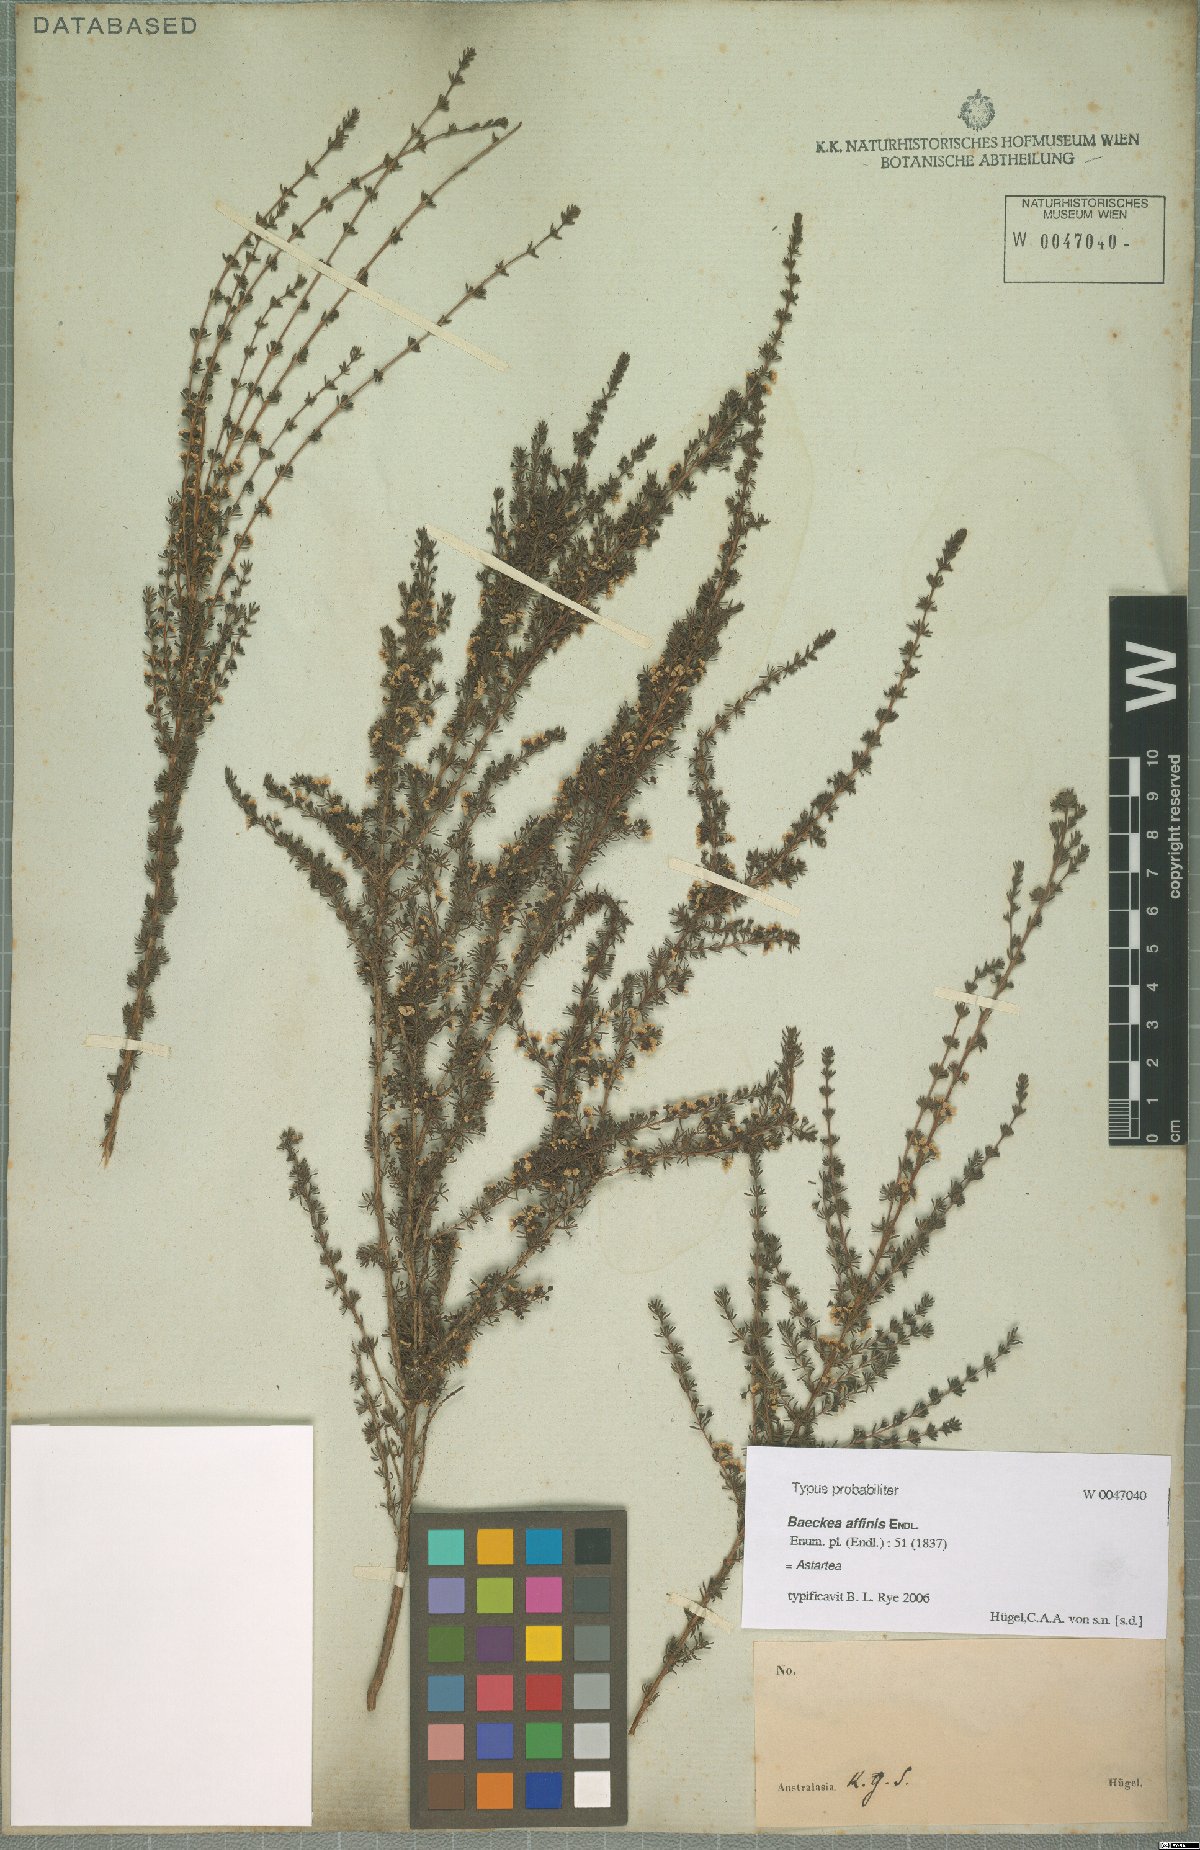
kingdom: Plantae
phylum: Tracheophyta
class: Magnoliopsida
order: Myrtales
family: Myrtaceae
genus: Astartea
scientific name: Astartea
